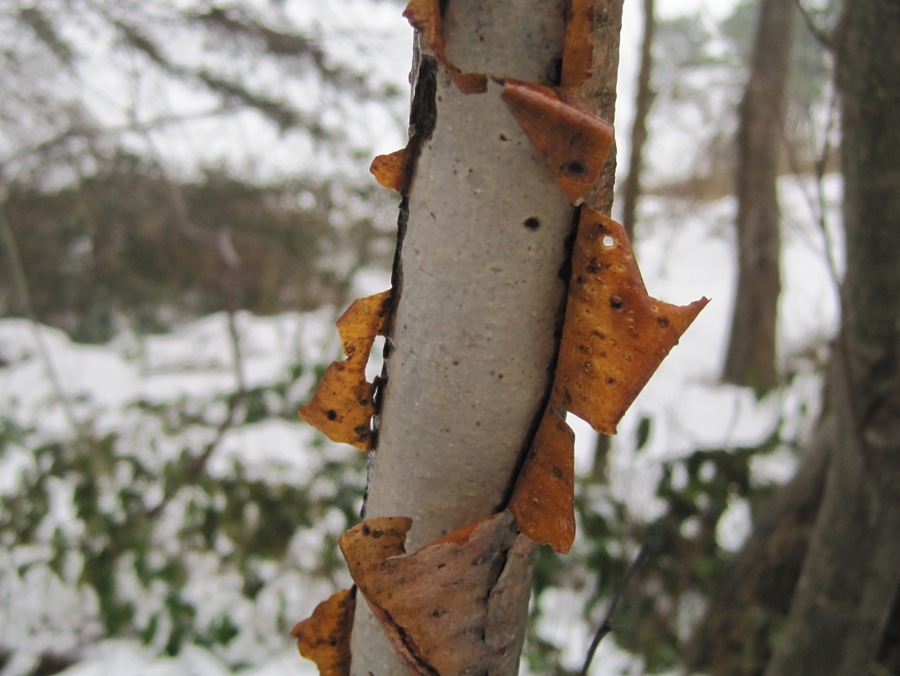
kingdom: Fungi
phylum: Basidiomycota
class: Agaricomycetes
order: Corticiales
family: Vuilleminiaceae
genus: Vuilleminia
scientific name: Vuilleminia comedens
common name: almindelig barksprænger
